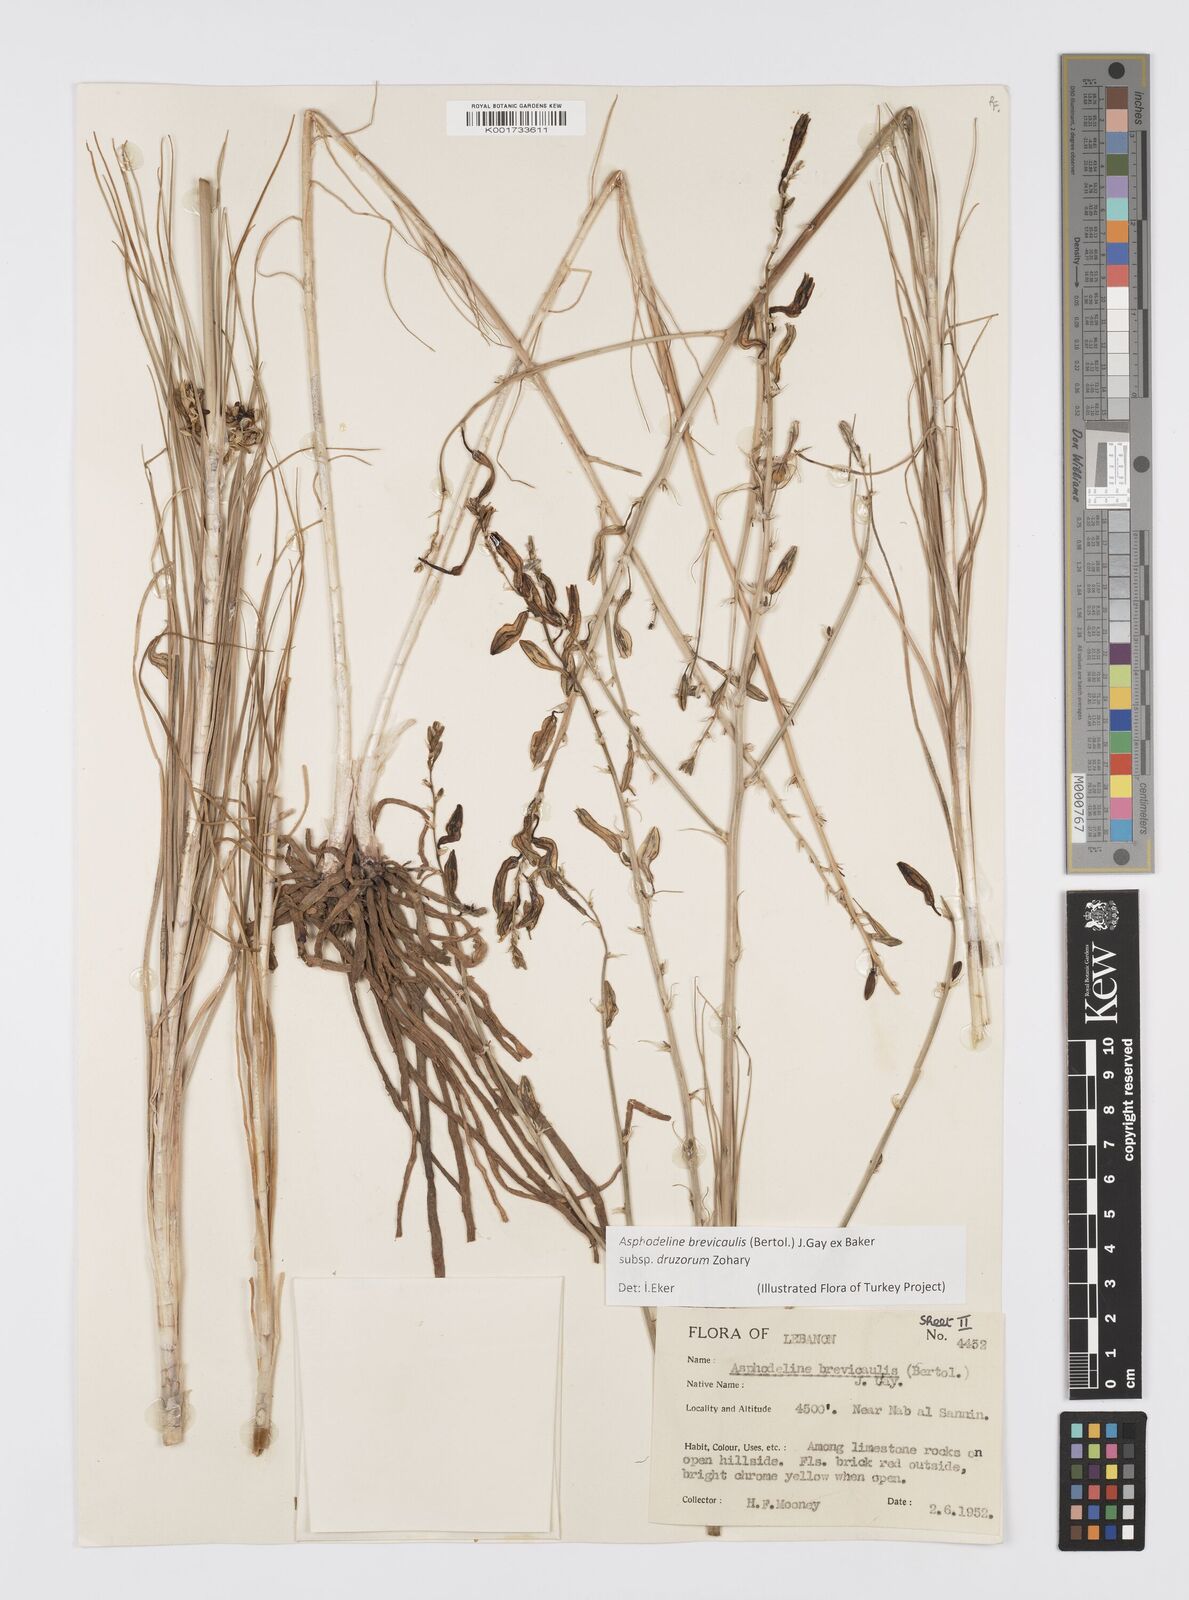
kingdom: Plantae
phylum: Tracheophyta
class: Liliopsida
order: Asparagales
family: Asphodelaceae
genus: Asphodeline
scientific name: Asphodeline brevicaulis
